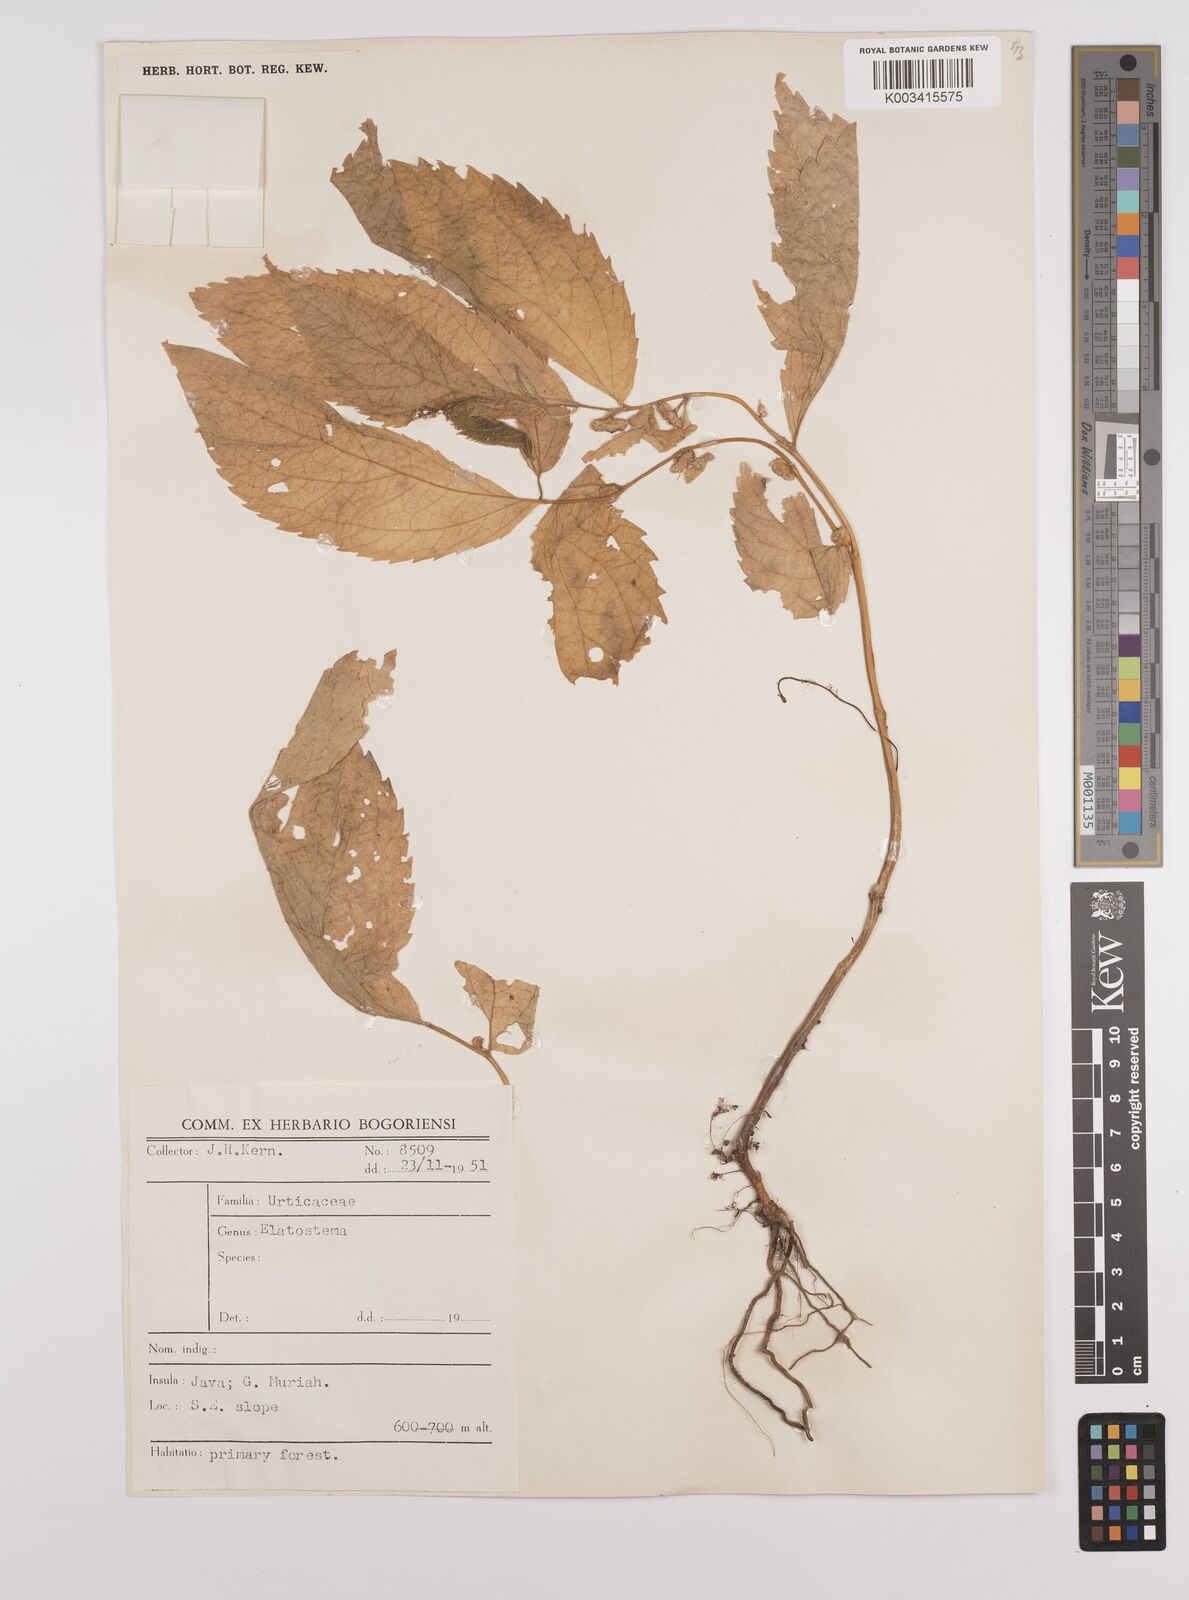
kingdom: Plantae
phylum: Tracheophyta
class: Magnoliopsida
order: Rosales
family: Urticaceae
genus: Elatostema
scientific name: Elatostema
